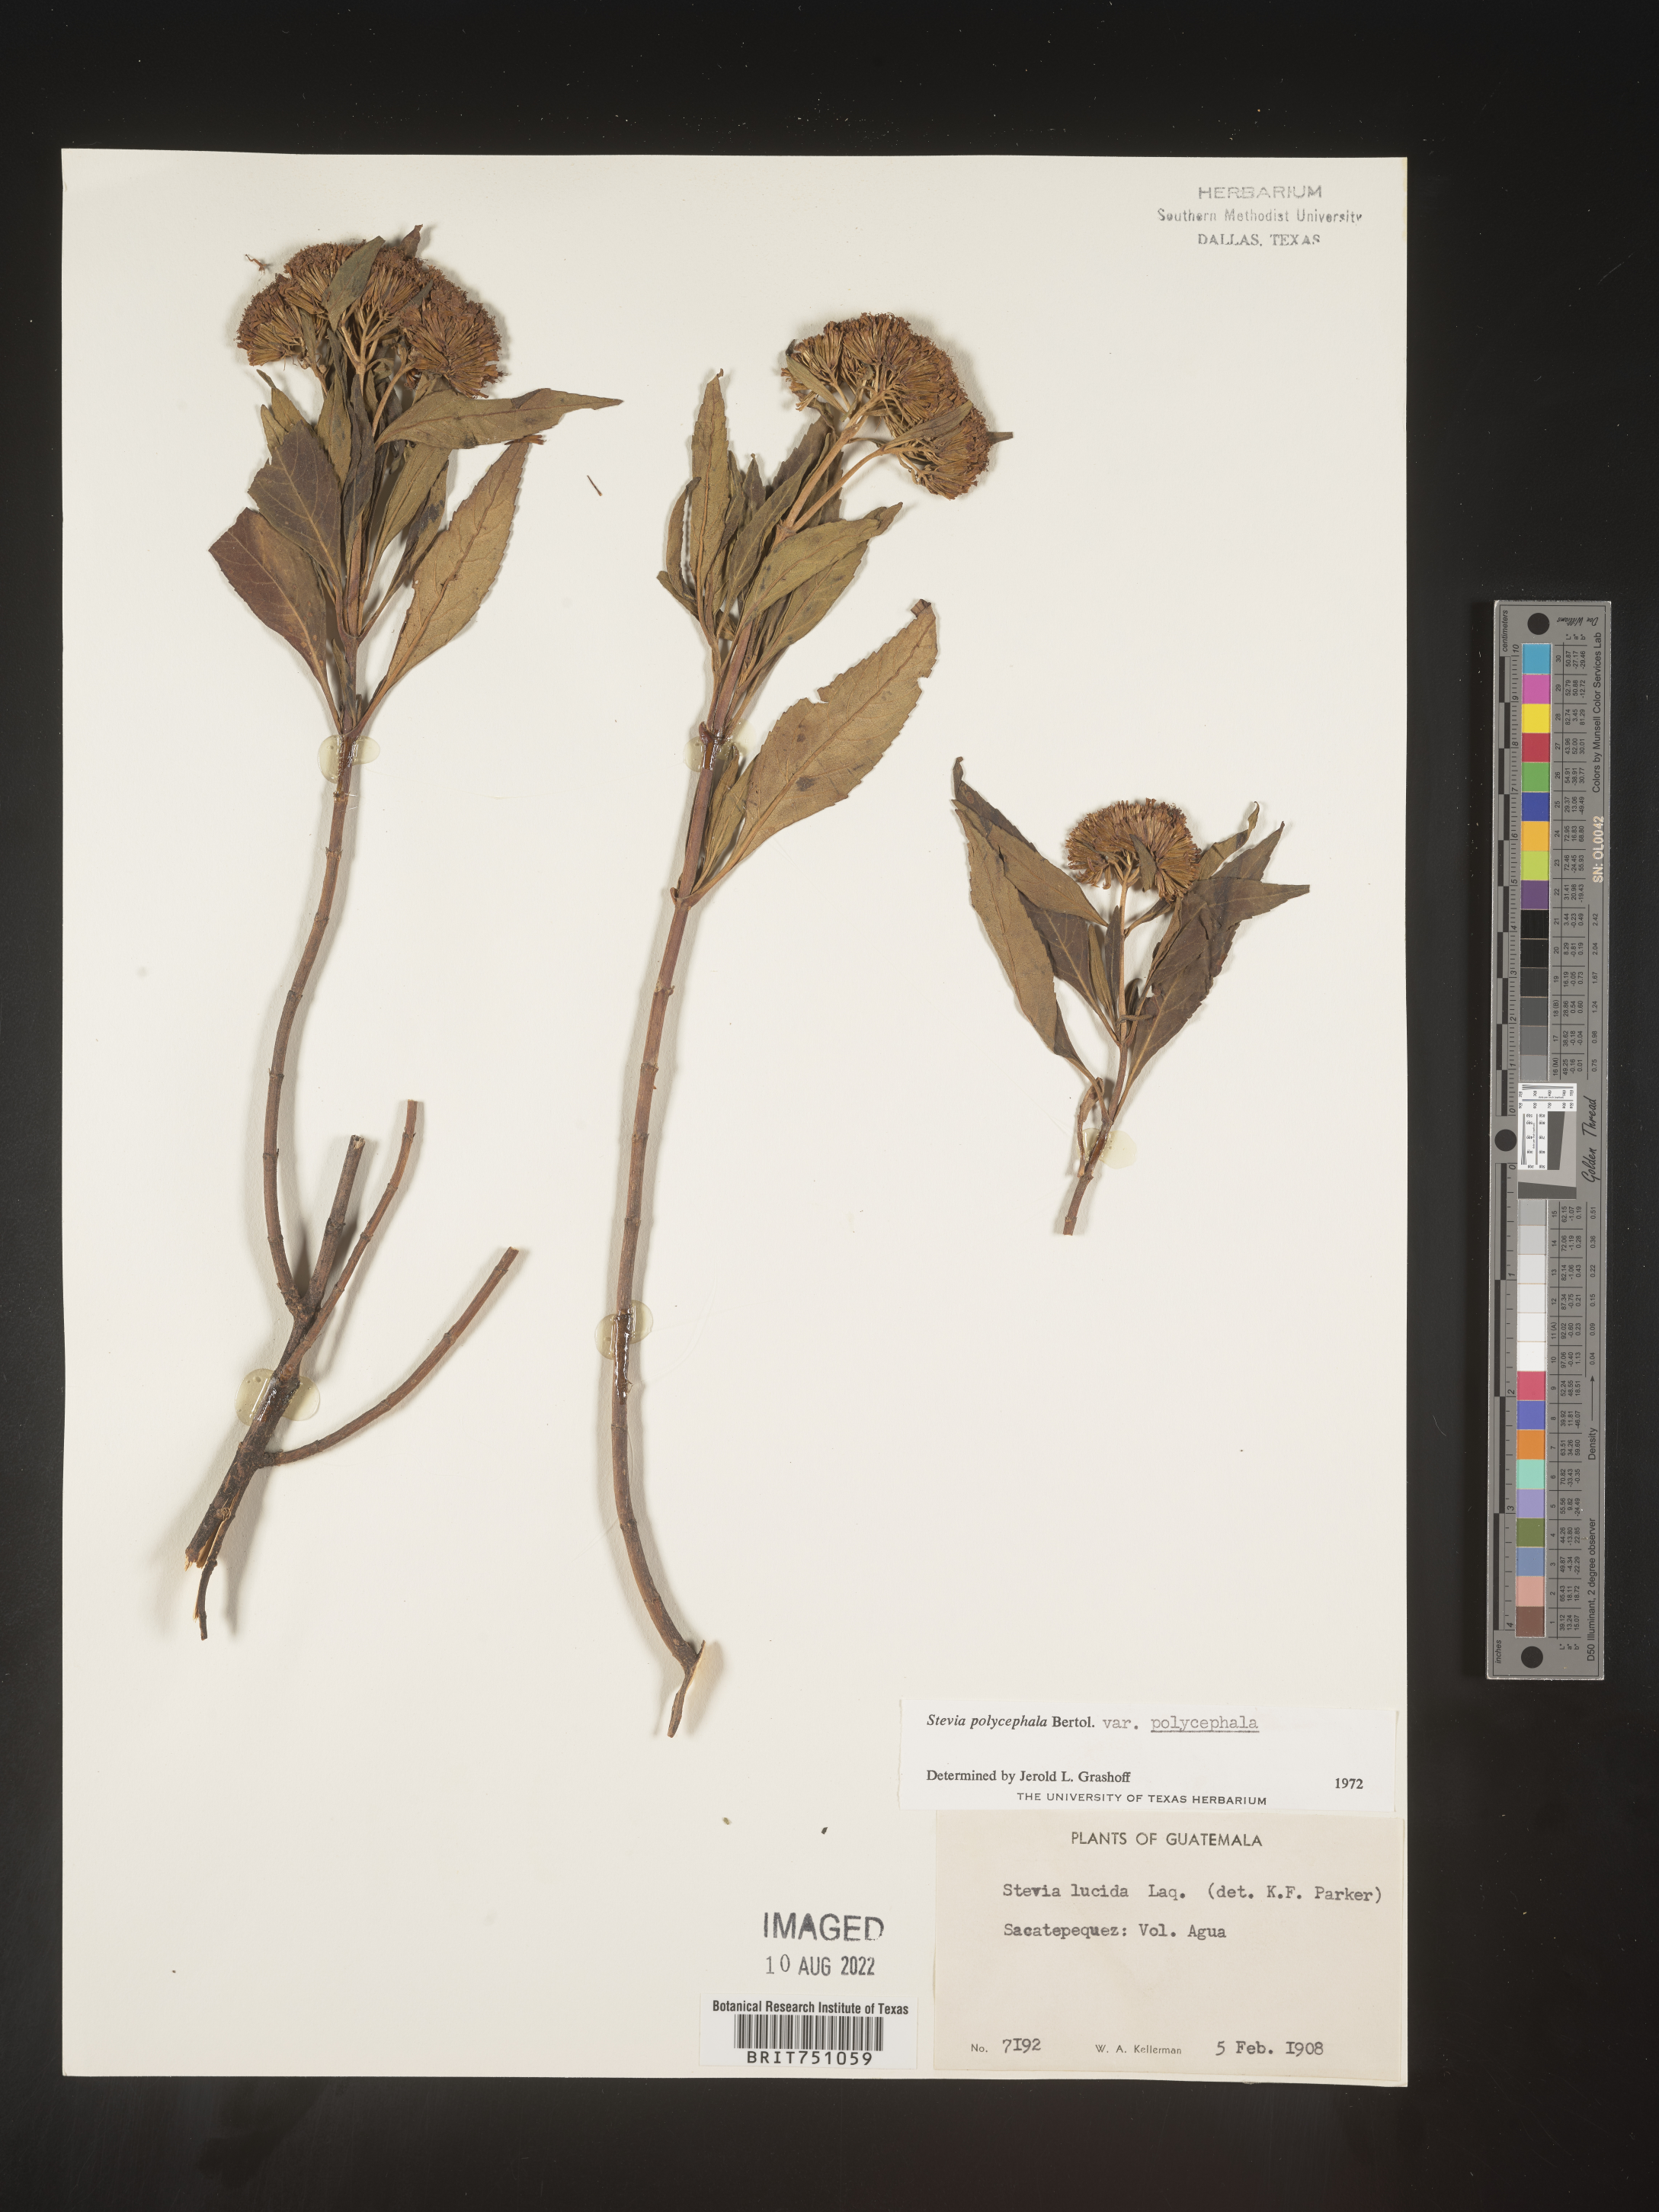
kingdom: Plantae
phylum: Tracheophyta
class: Magnoliopsida
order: Asterales
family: Asteraceae
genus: Stevia
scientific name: Stevia
